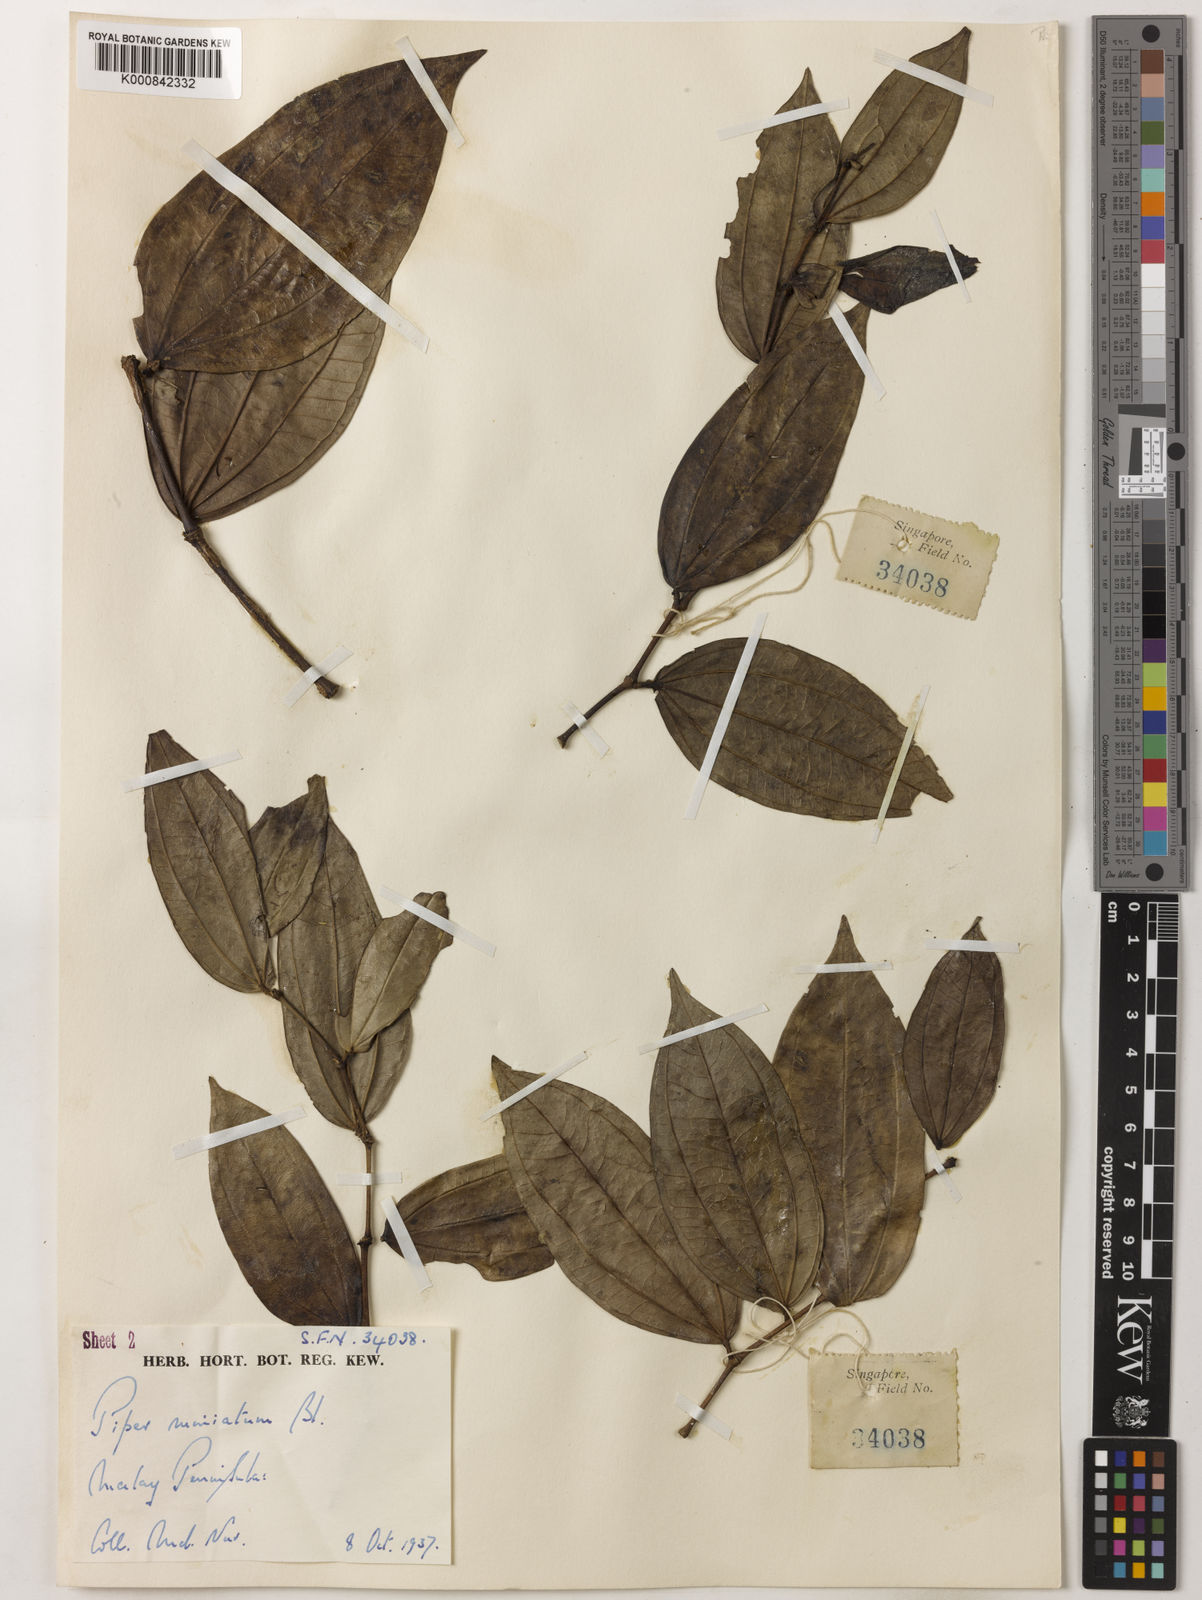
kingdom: Plantae
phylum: Tracheophyta
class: Magnoliopsida
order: Piperales
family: Piperaceae
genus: Piper
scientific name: Piper macropiper
